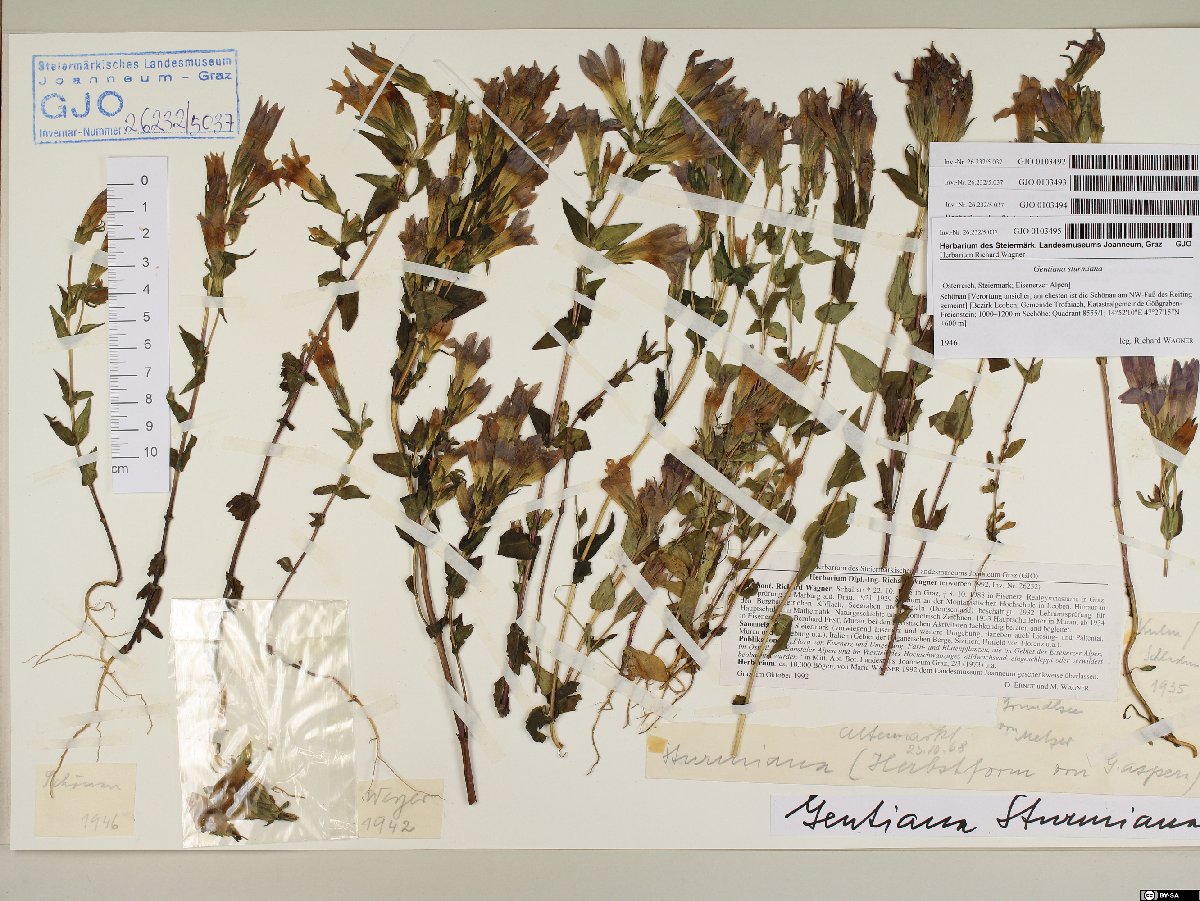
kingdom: Plantae
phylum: Tracheophyta
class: Magnoliopsida
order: Gentianales
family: Gentianaceae
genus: Gentianella
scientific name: Gentianella obtusifolia
